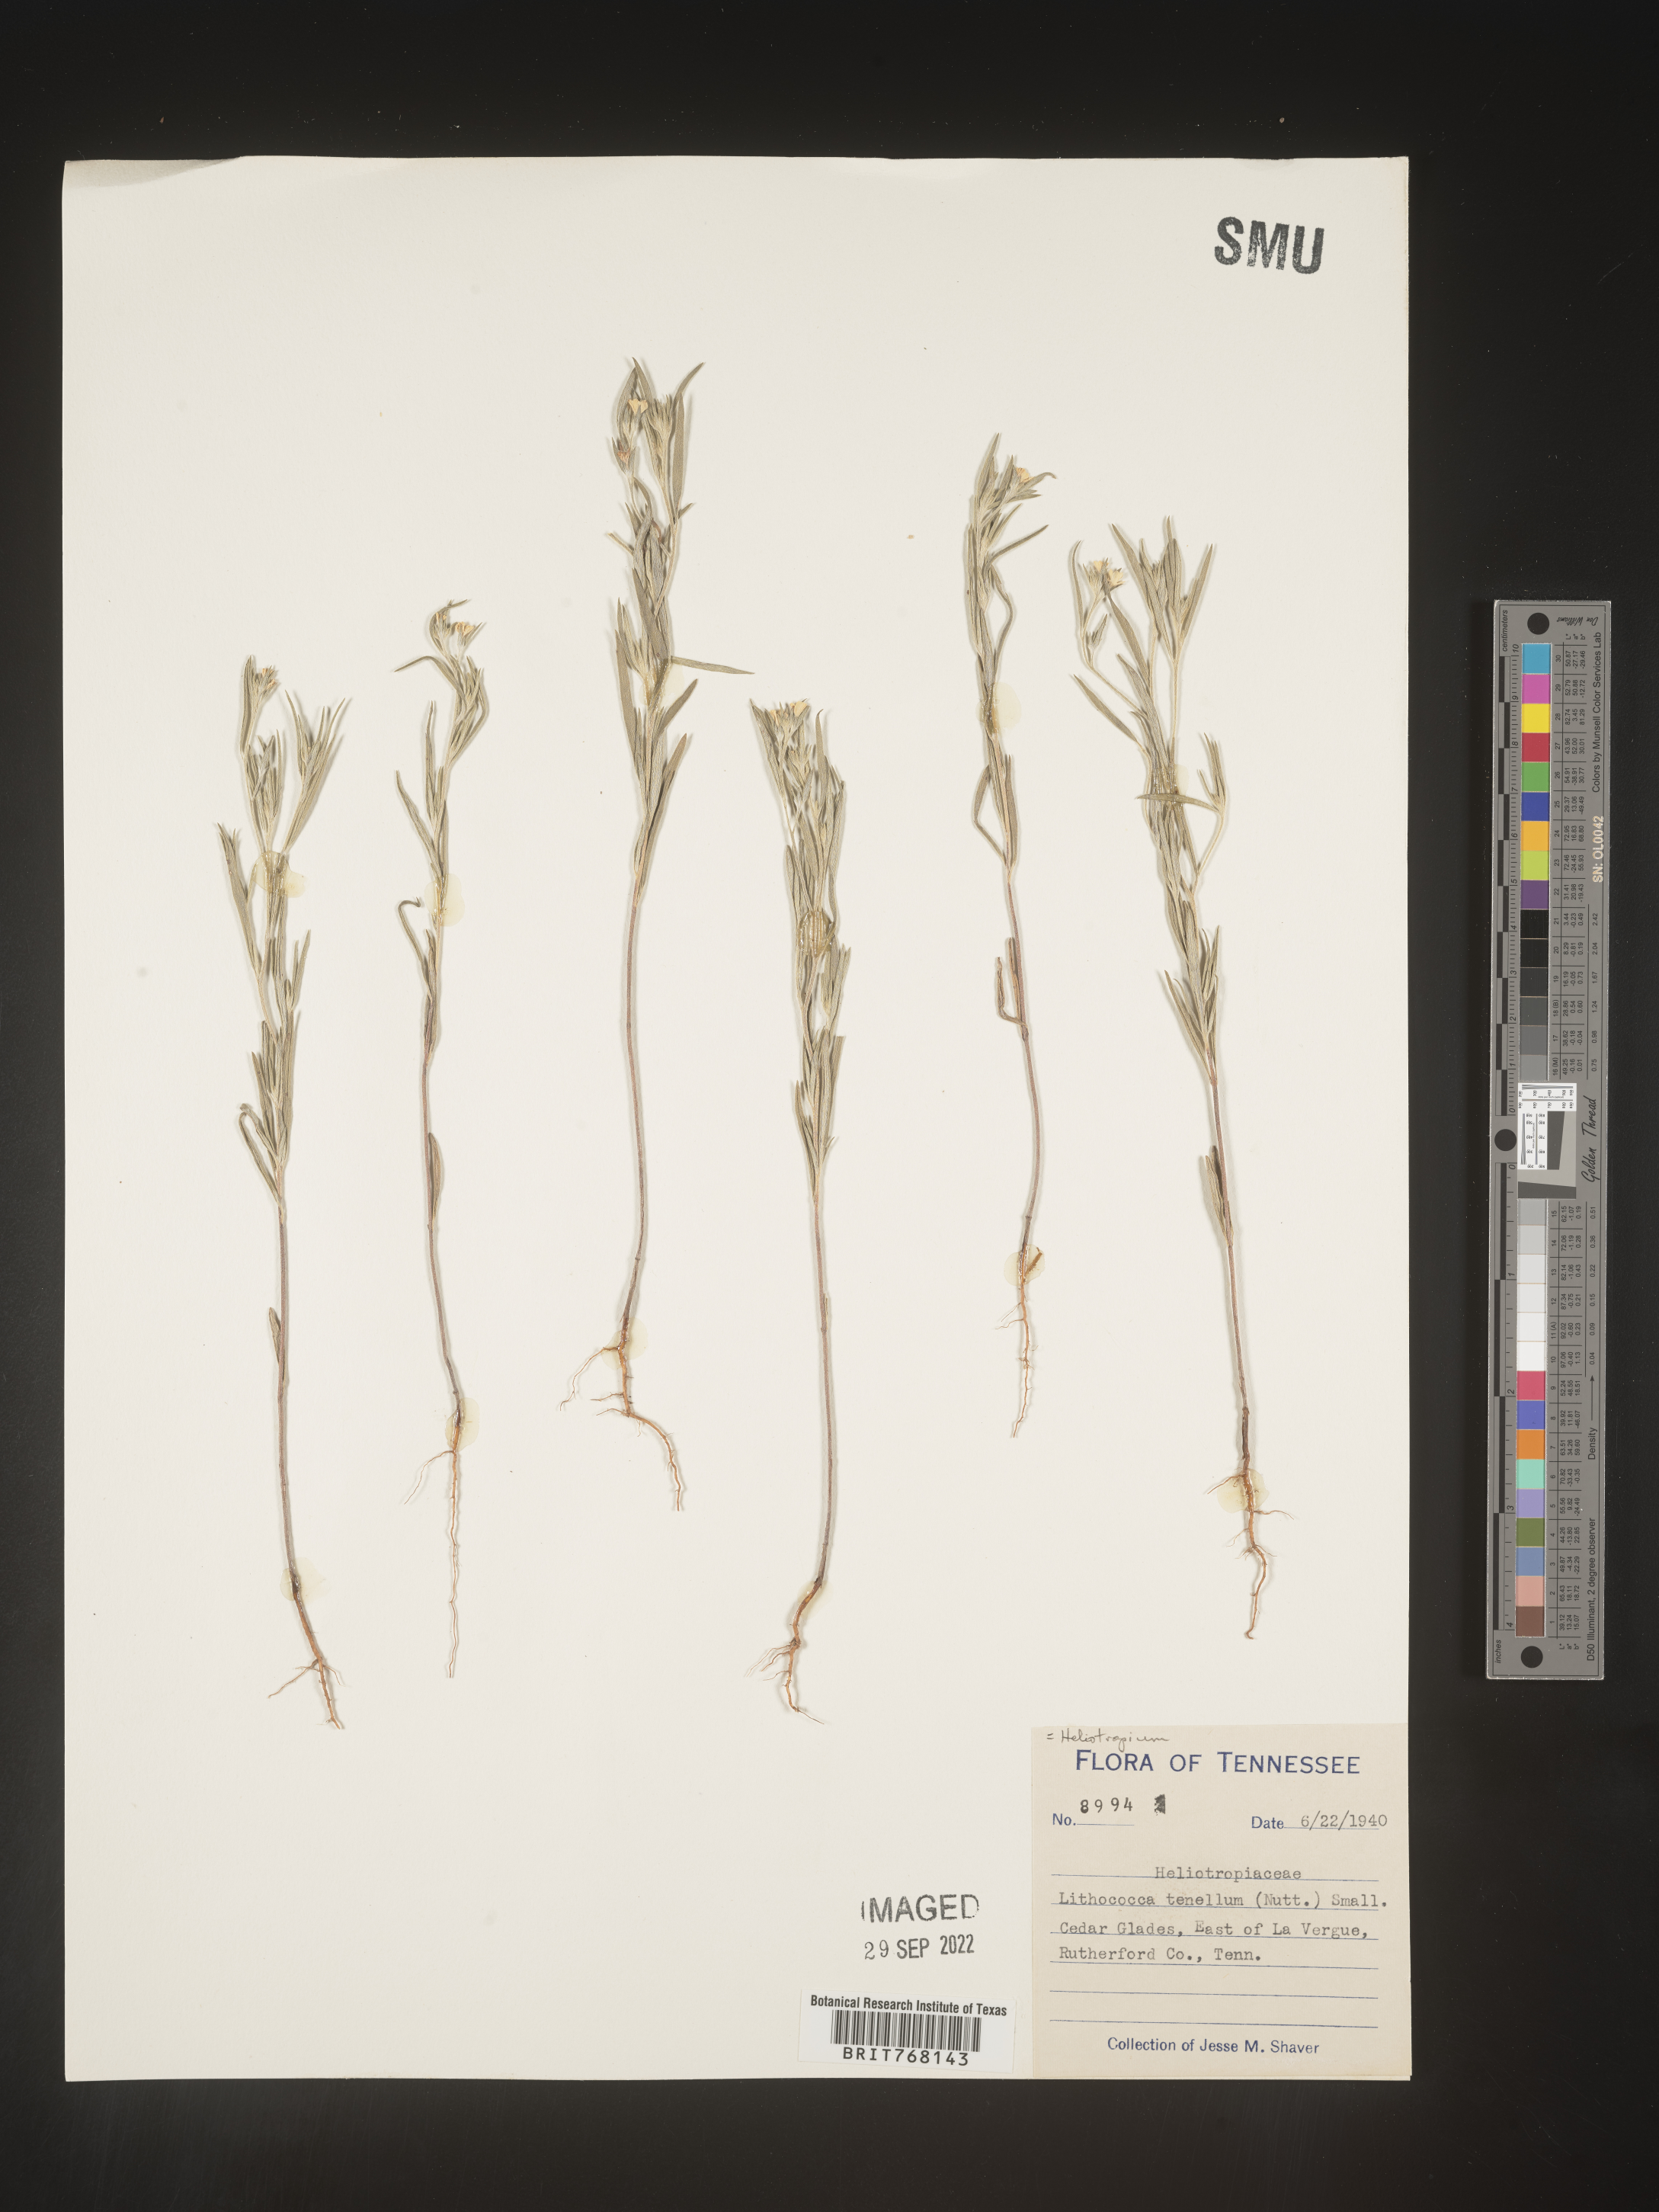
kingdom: Plantae
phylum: Tracheophyta
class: Magnoliopsida
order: Boraginales
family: Heliotropiaceae
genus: Euploca
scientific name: Euploca tenella
